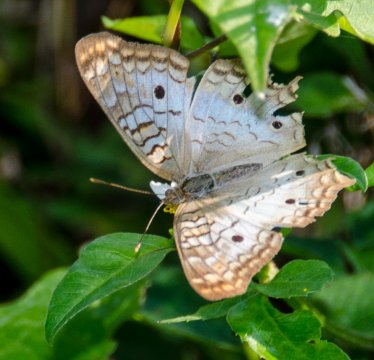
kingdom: Animalia
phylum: Arthropoda
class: Insecta
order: Lepidoptera
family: Nymphalidae
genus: Anartia
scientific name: Anartia jatrophae
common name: White Peacock
